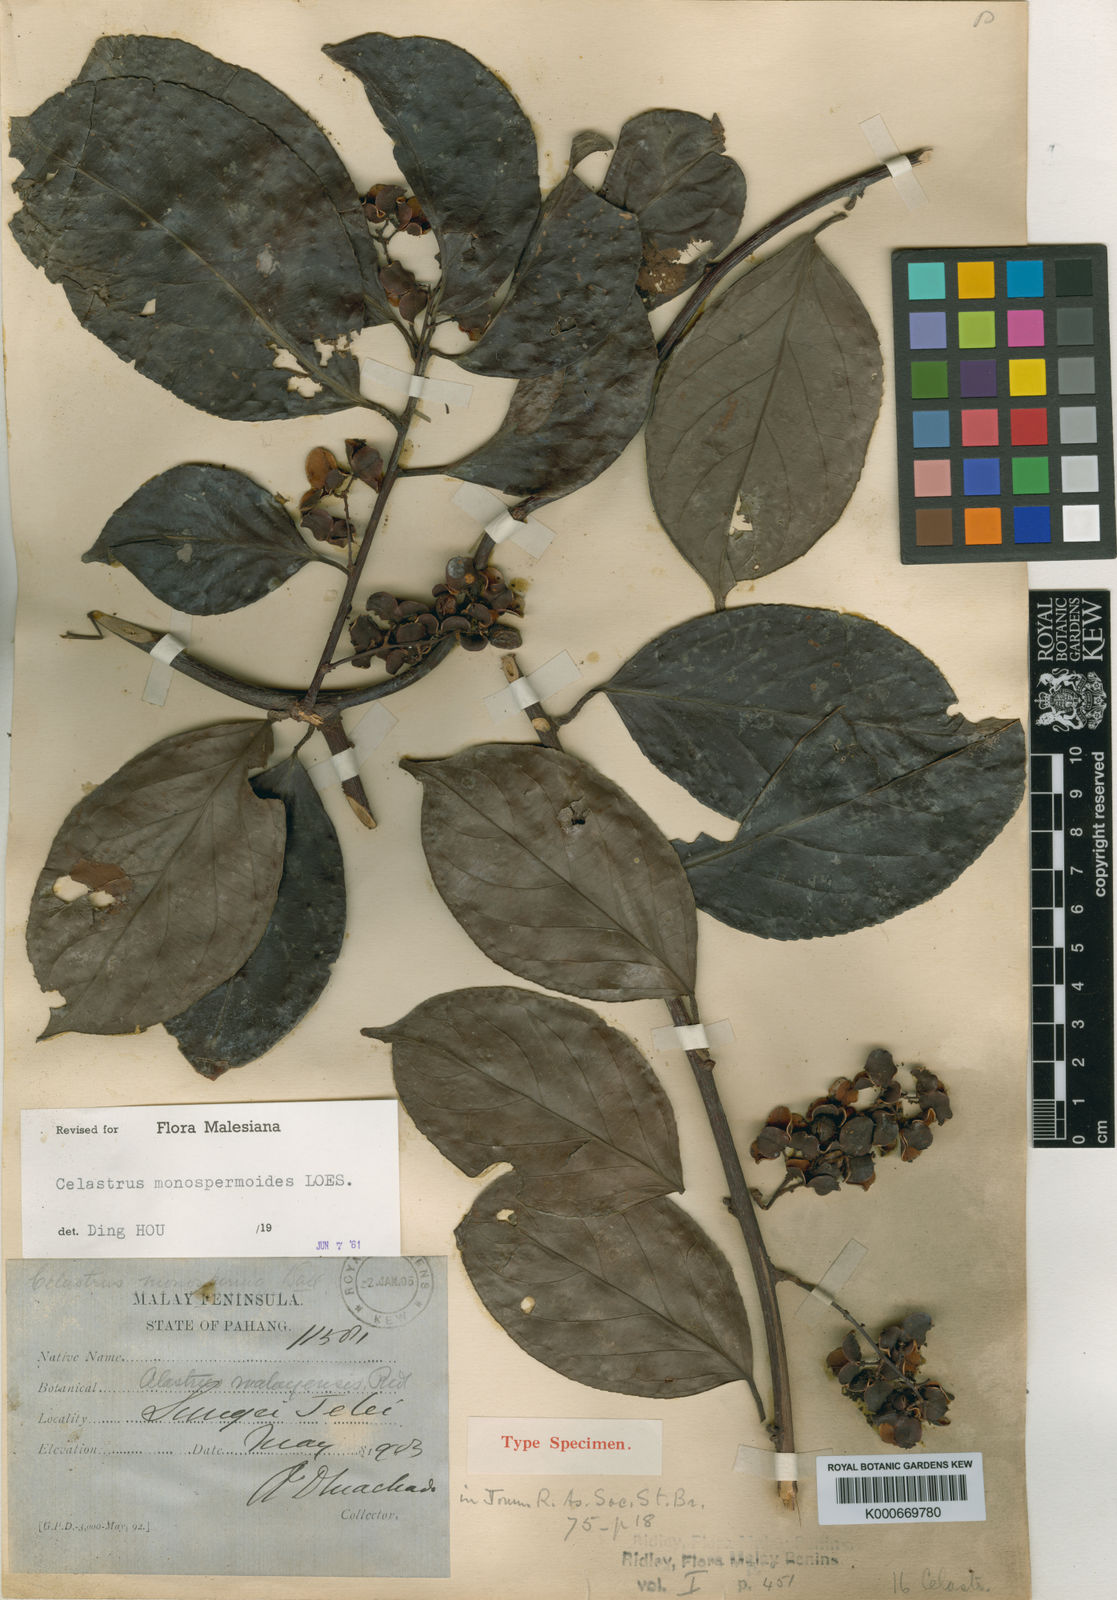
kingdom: Plantae
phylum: Tracheophyta
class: Magnoliopsida
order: Celastrales
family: Celastraceae
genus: Celastrus
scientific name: Celastrus monospermoides
